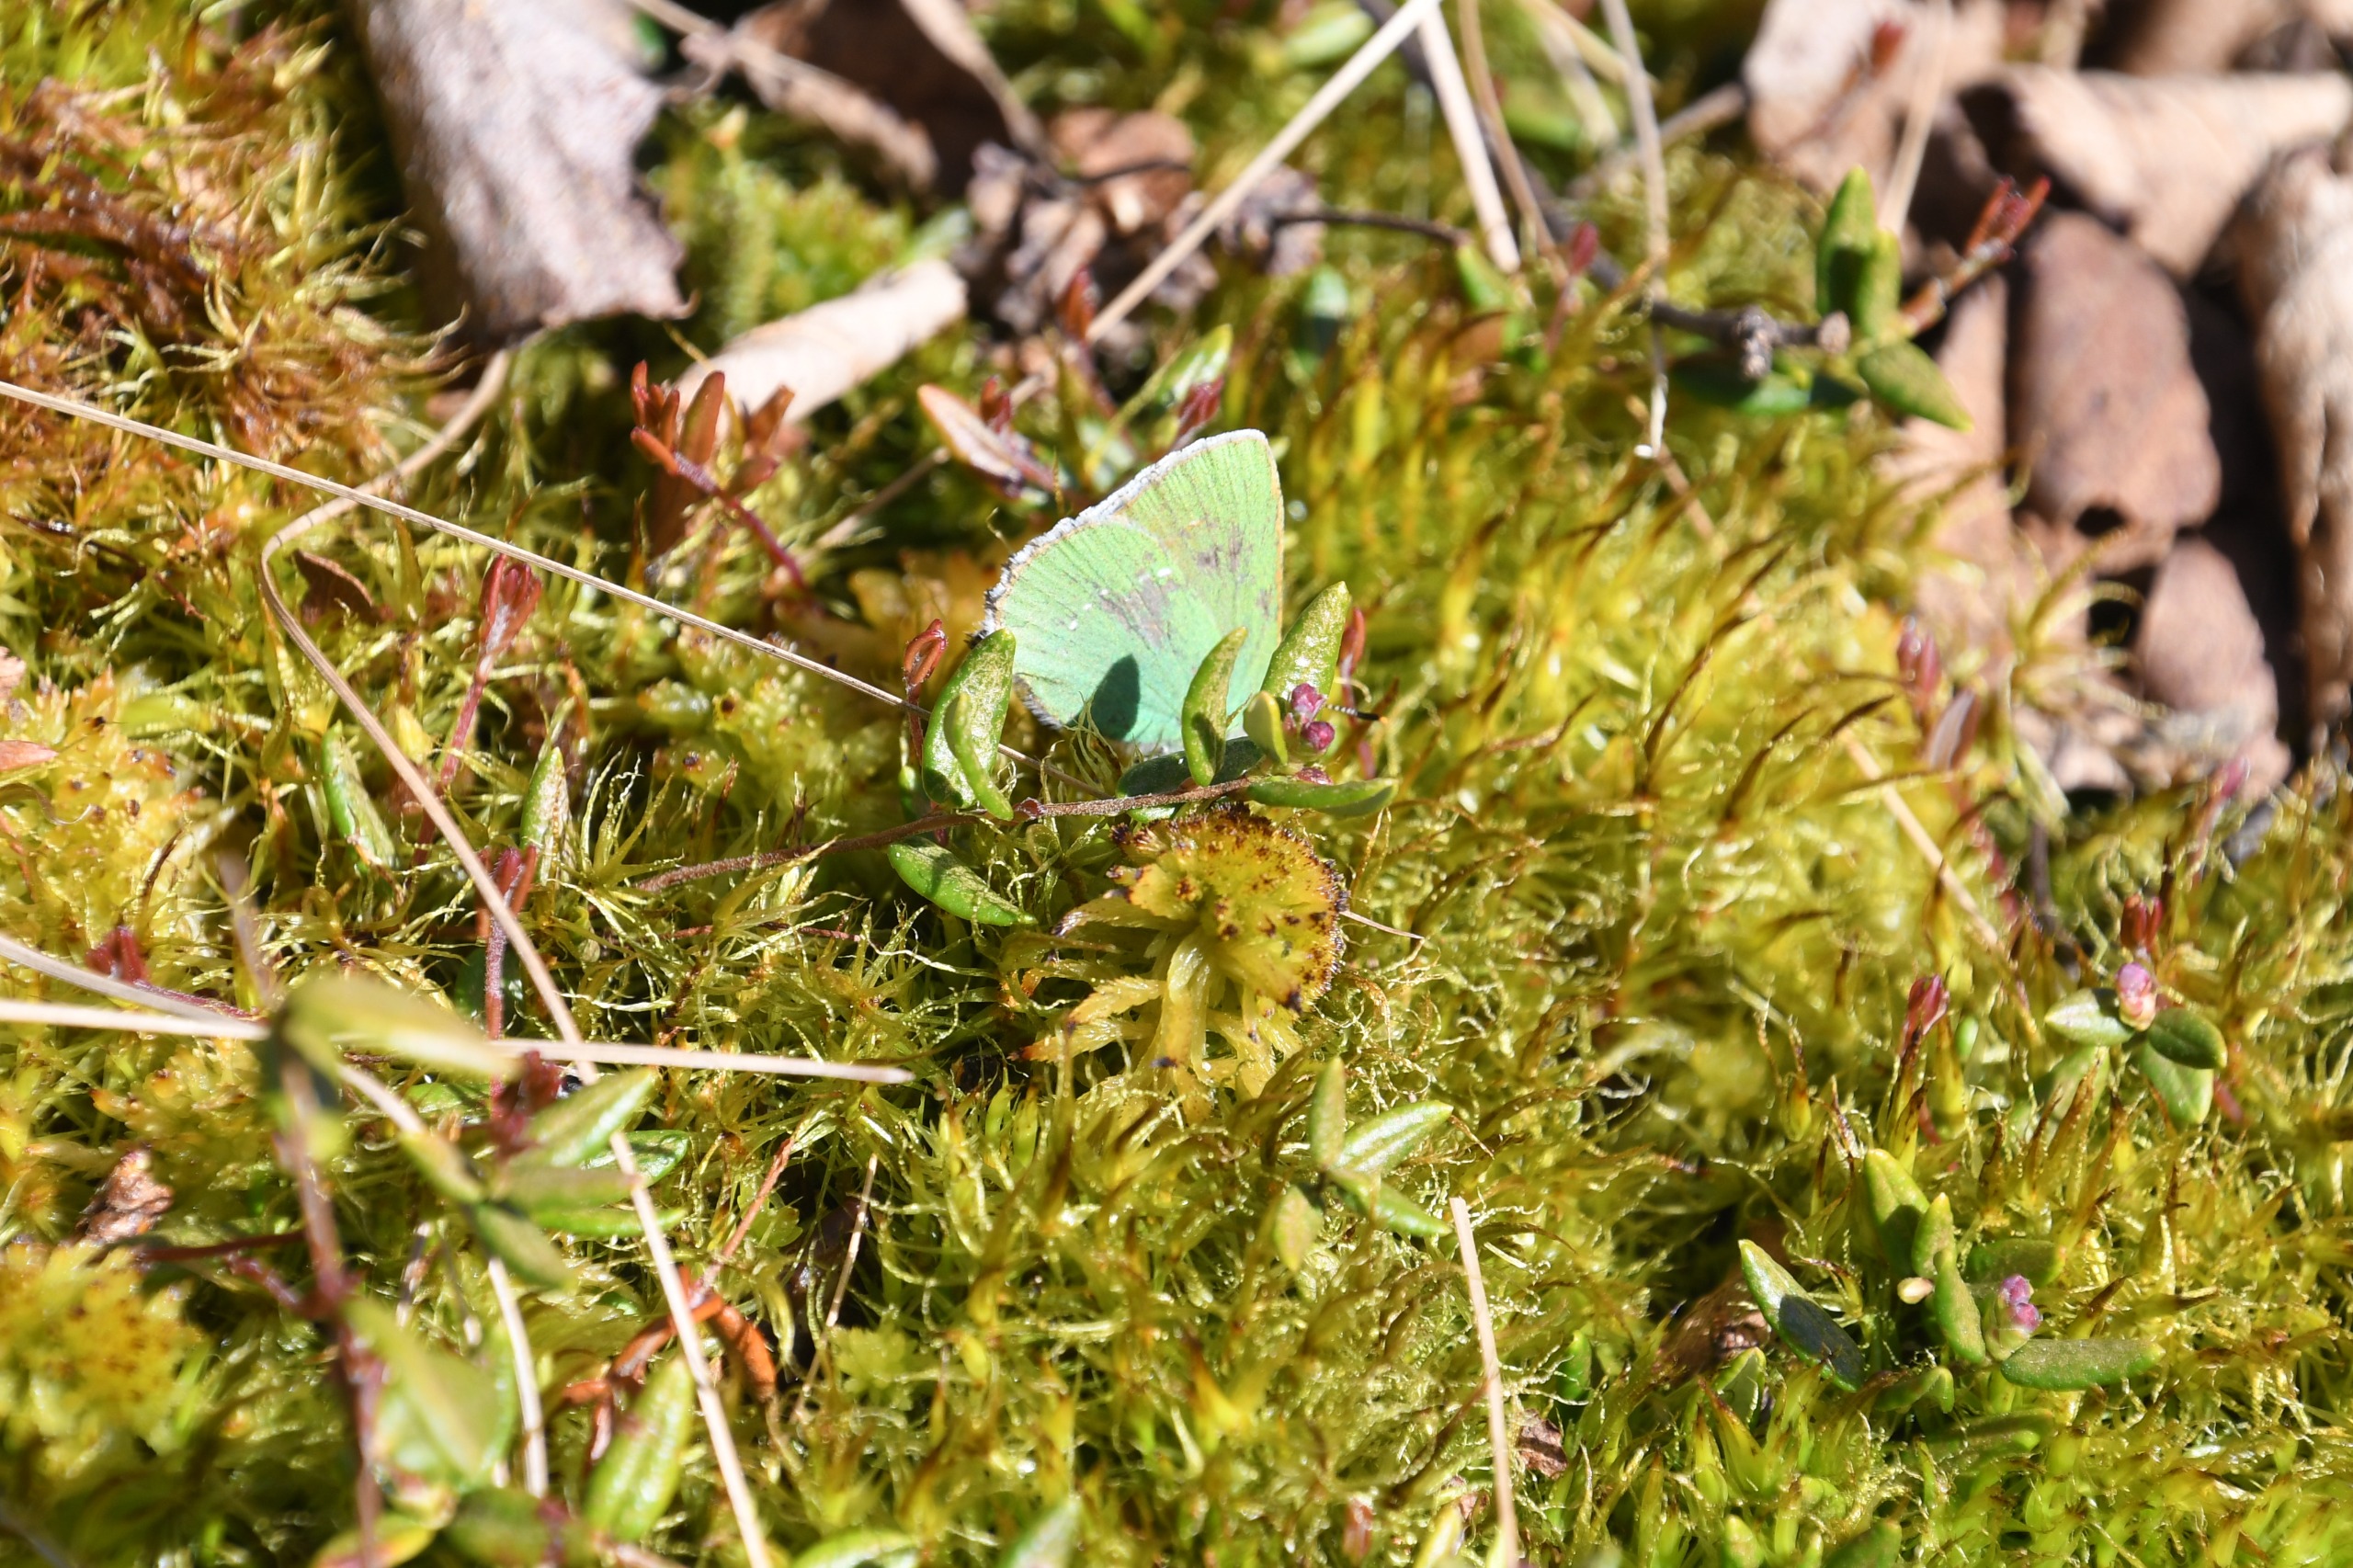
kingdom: Animalia
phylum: Arthropoda
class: Insecta
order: Lepidoptera
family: Lycaenidae
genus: Callophrys
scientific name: Callophrys rubi
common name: Grøn busksommerfugl
